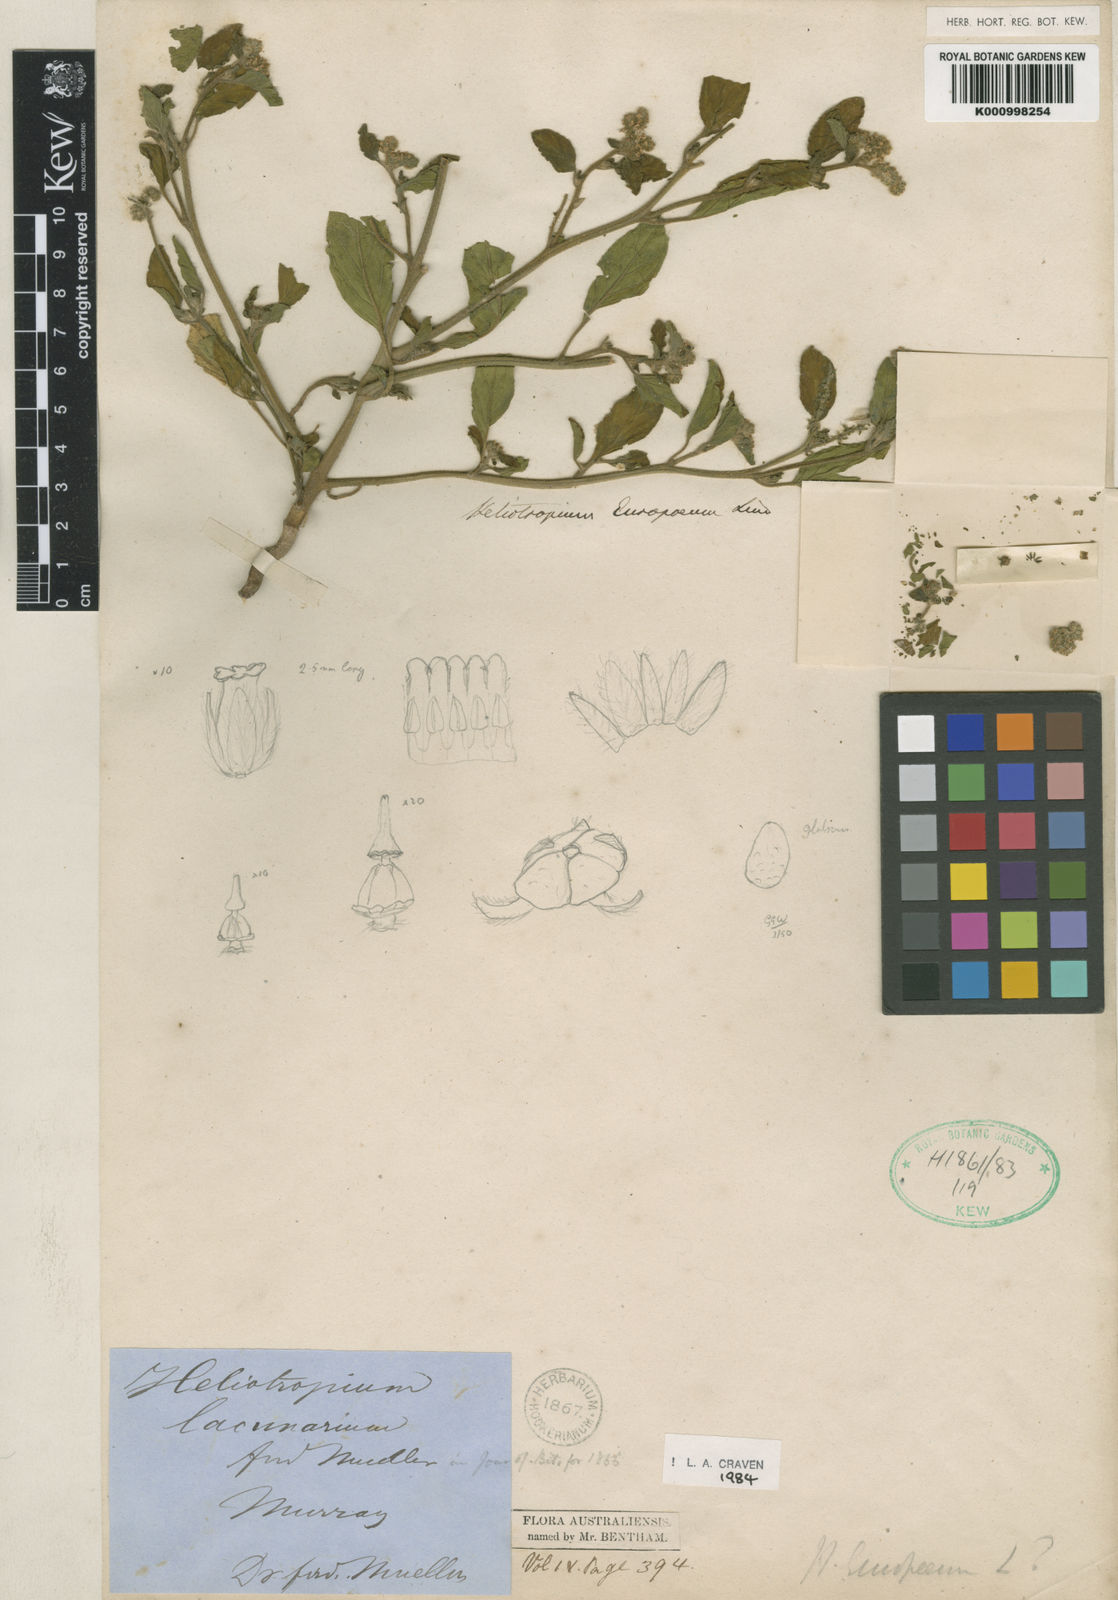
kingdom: Plantae
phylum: Tracheophyta
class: Magnoliopsida
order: Boraginales
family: Heliotropiaceae
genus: Heliotropium
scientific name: Heliotropium europaeum
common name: European heliotrope
